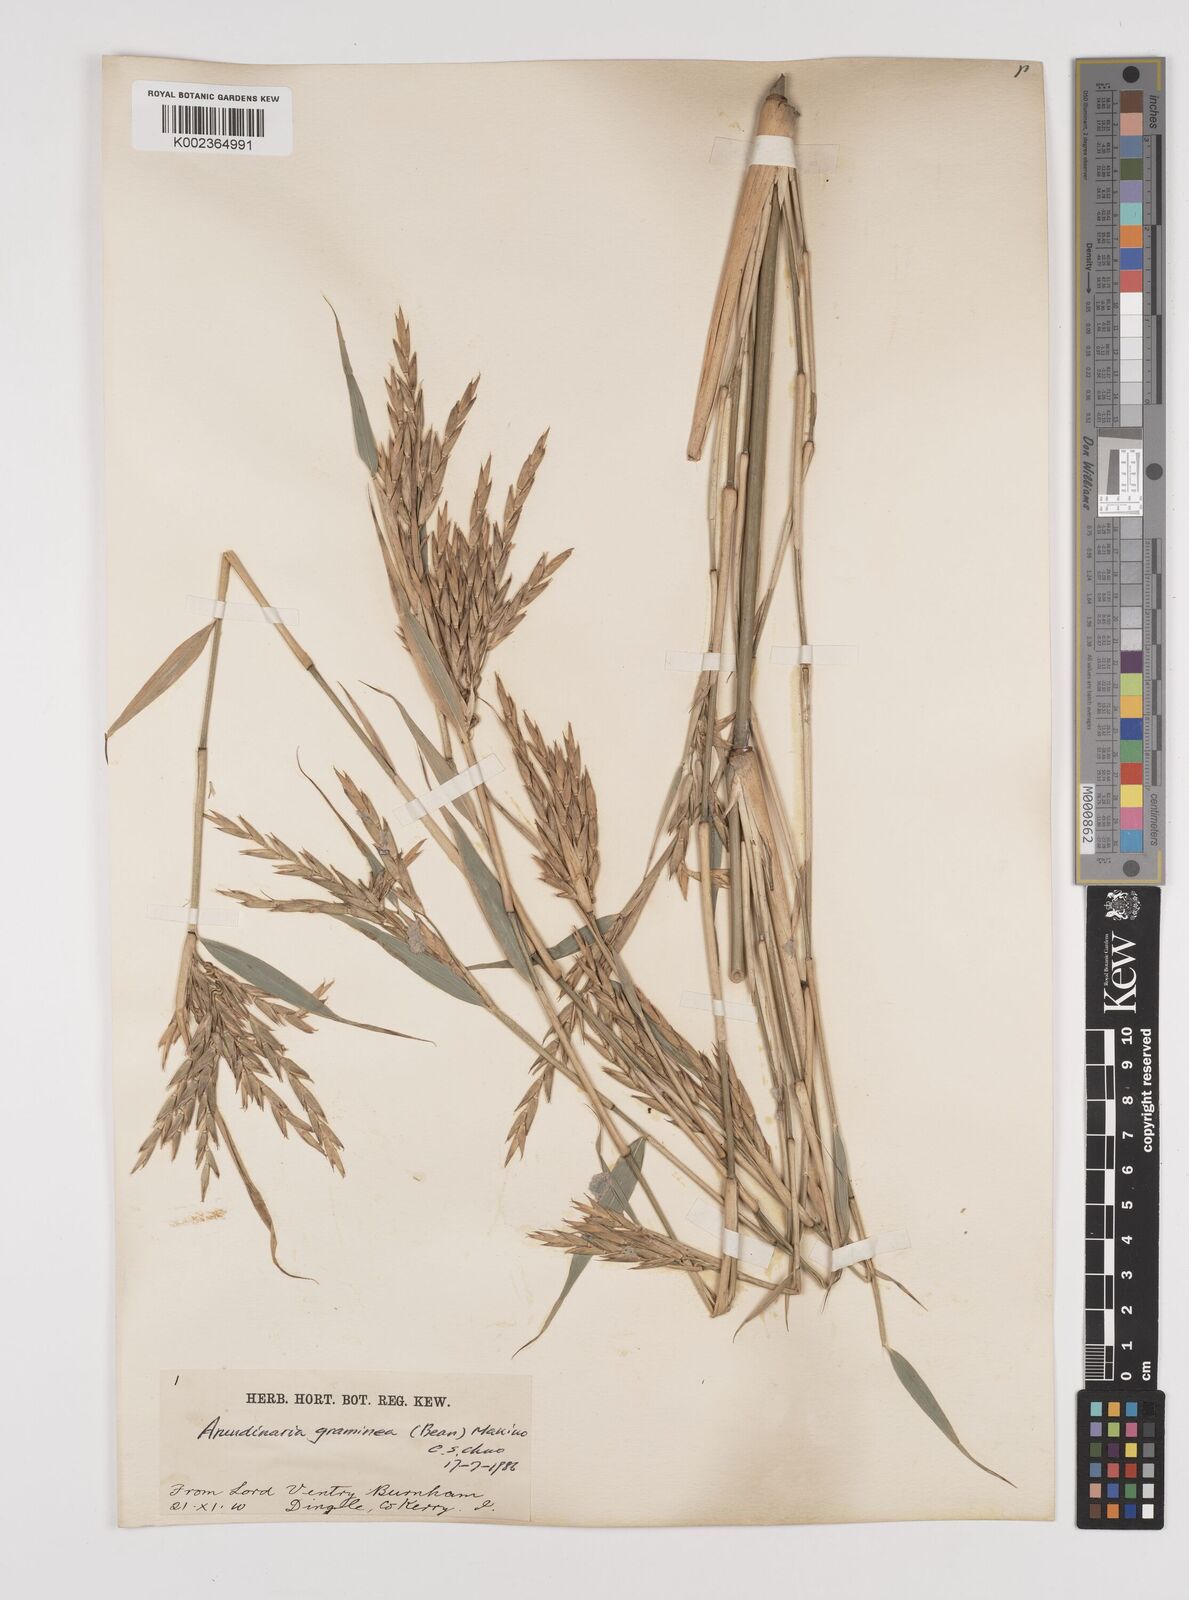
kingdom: Plantae
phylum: Tracheophyta
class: Liliopsida
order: Poales
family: Poaceae
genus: Pleioblastus
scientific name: Pleioblastus gramineus
